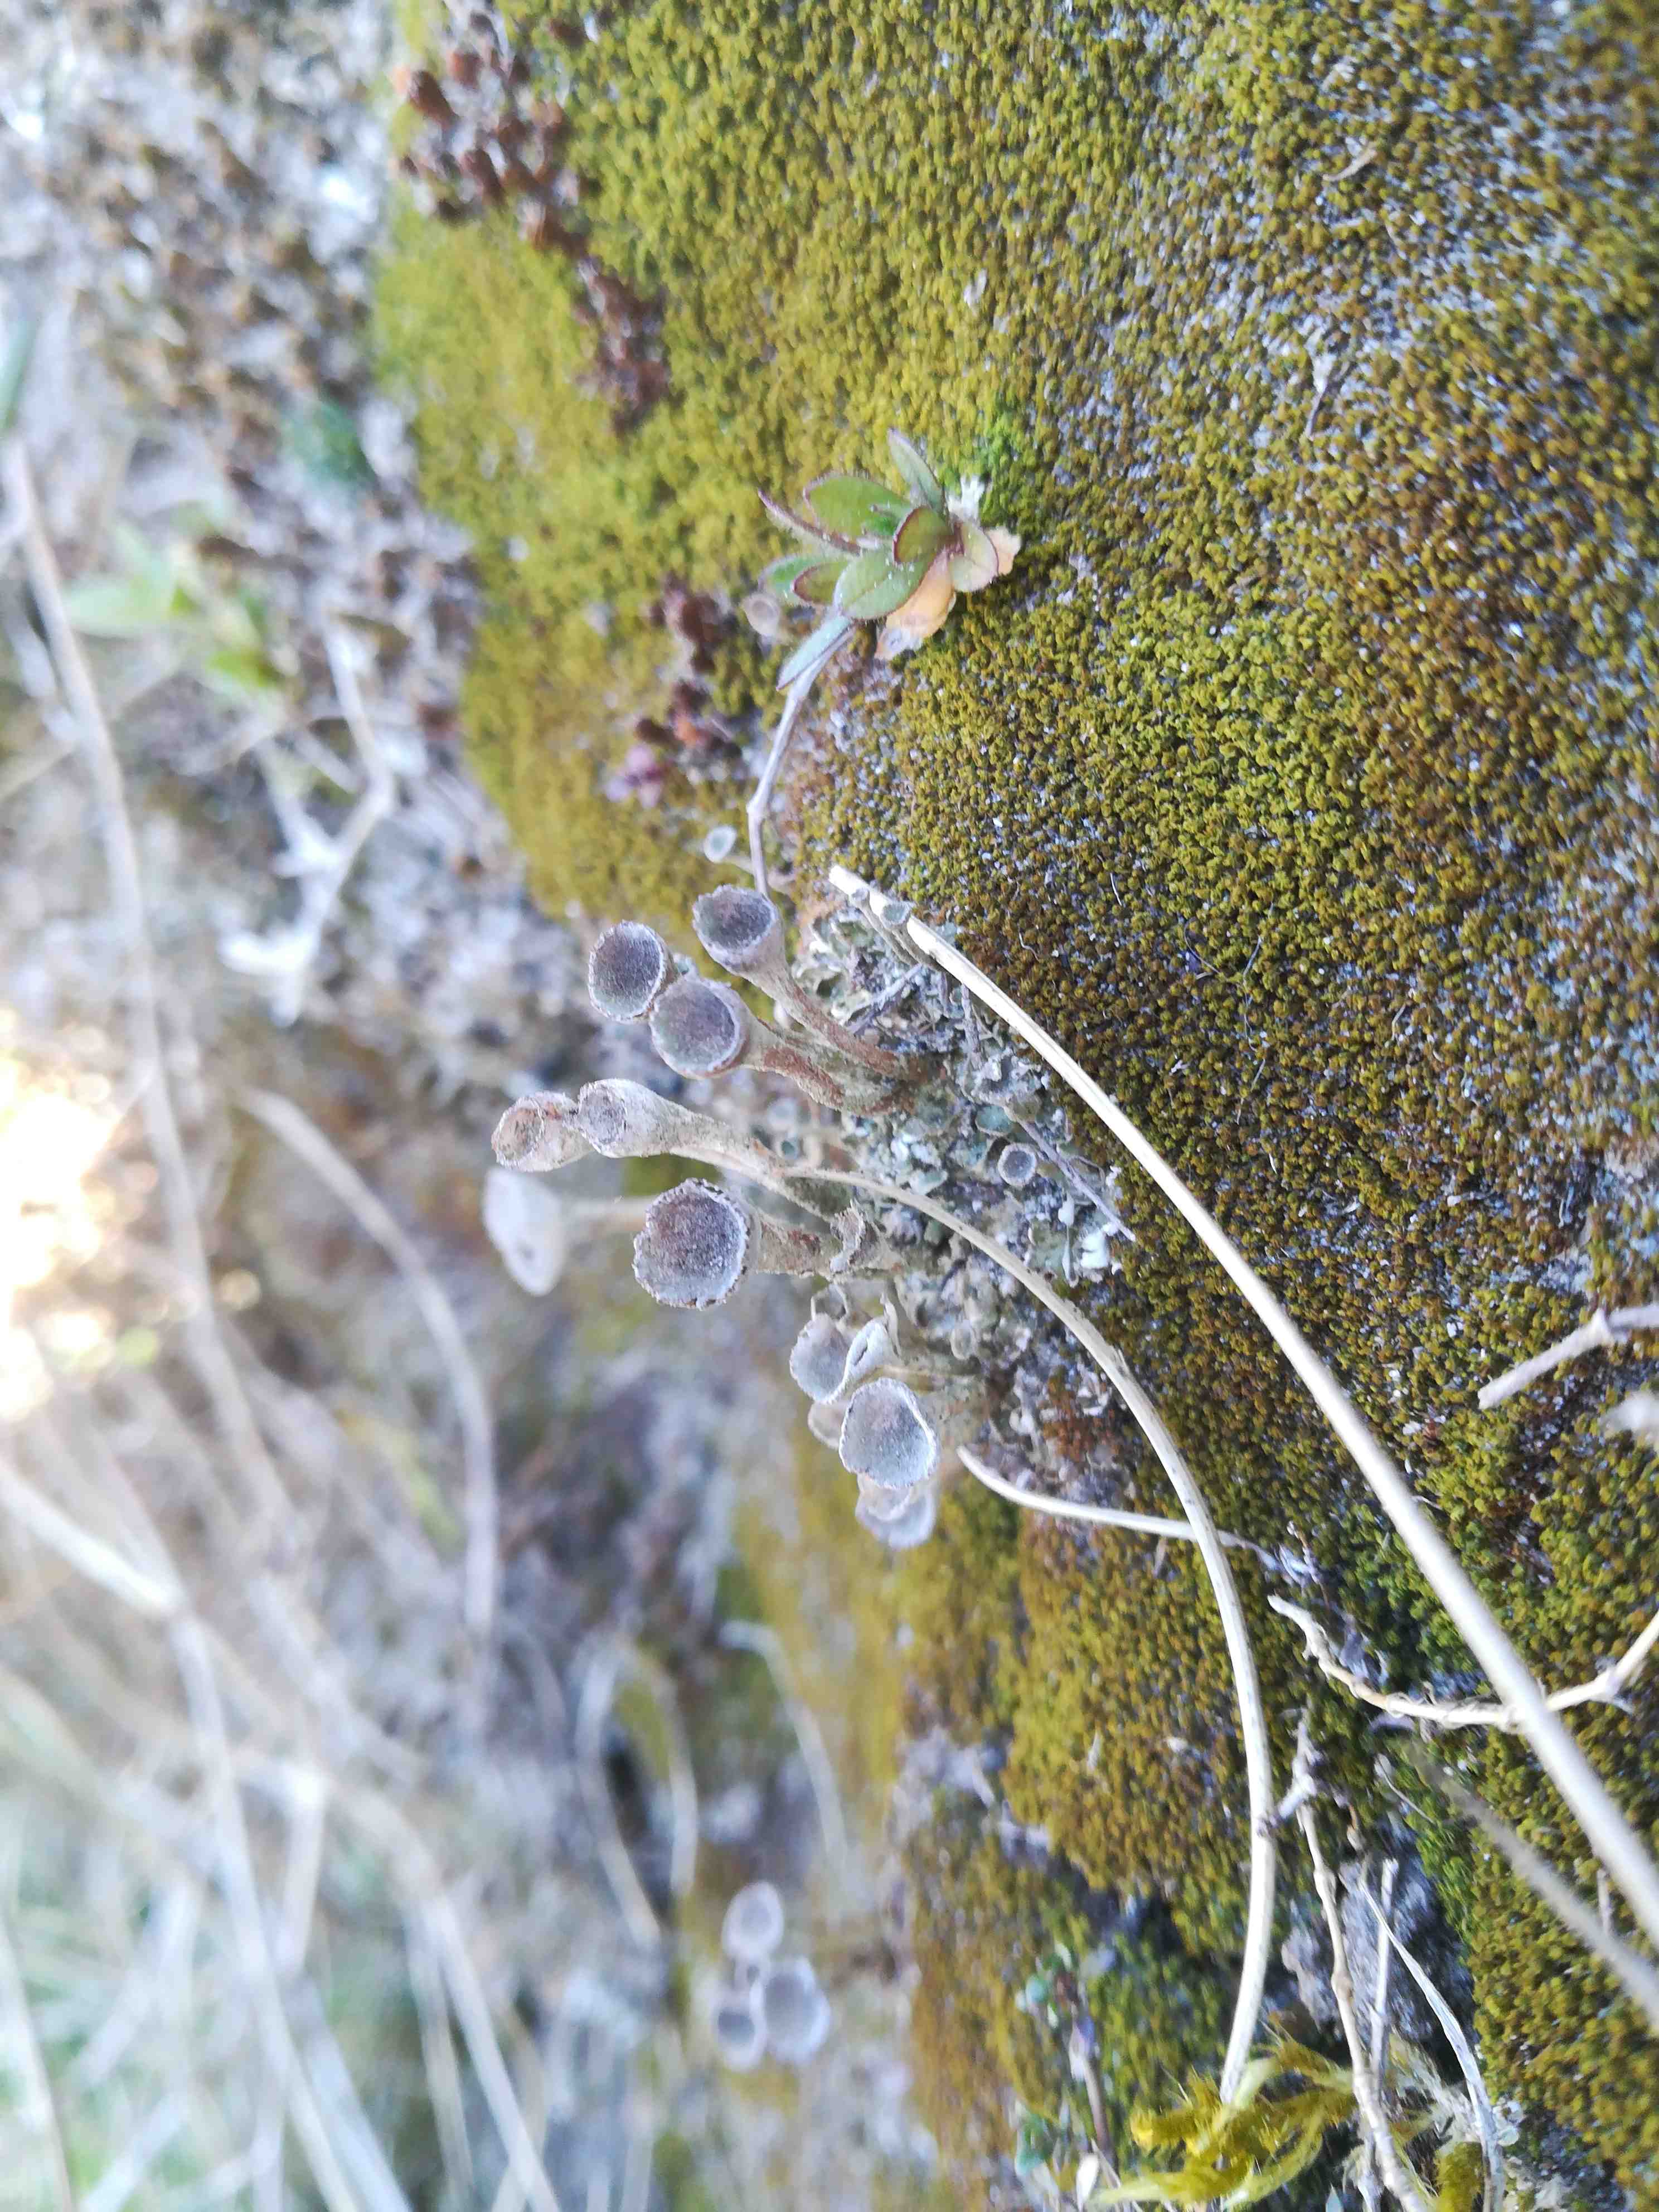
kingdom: Fungi
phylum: Ascomycota
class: Lecanoromycetes
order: Lecanorales
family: Cladoniaceae
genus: Cladonia
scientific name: Cladonia
